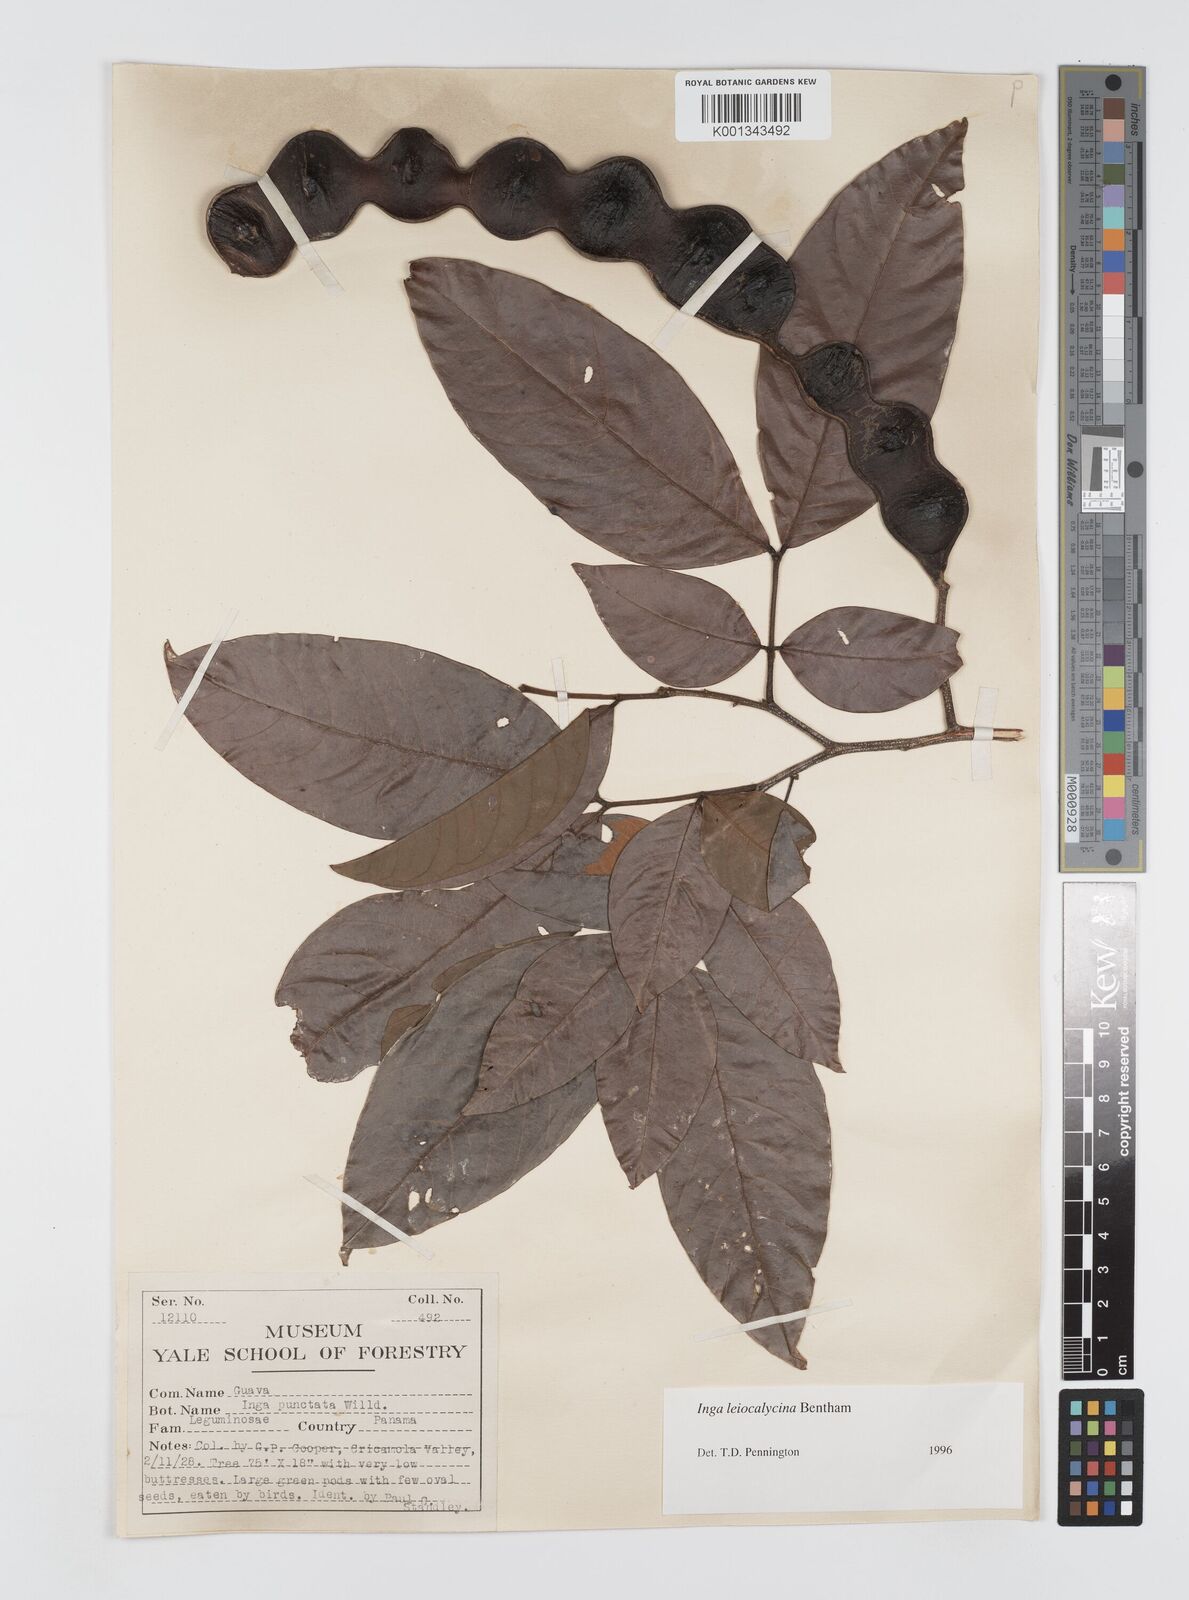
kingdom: Plantae
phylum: Tracheophyta
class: Magnoliopsida
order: Fabales
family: Fabaceae
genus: Inga
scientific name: Inga laevigata
